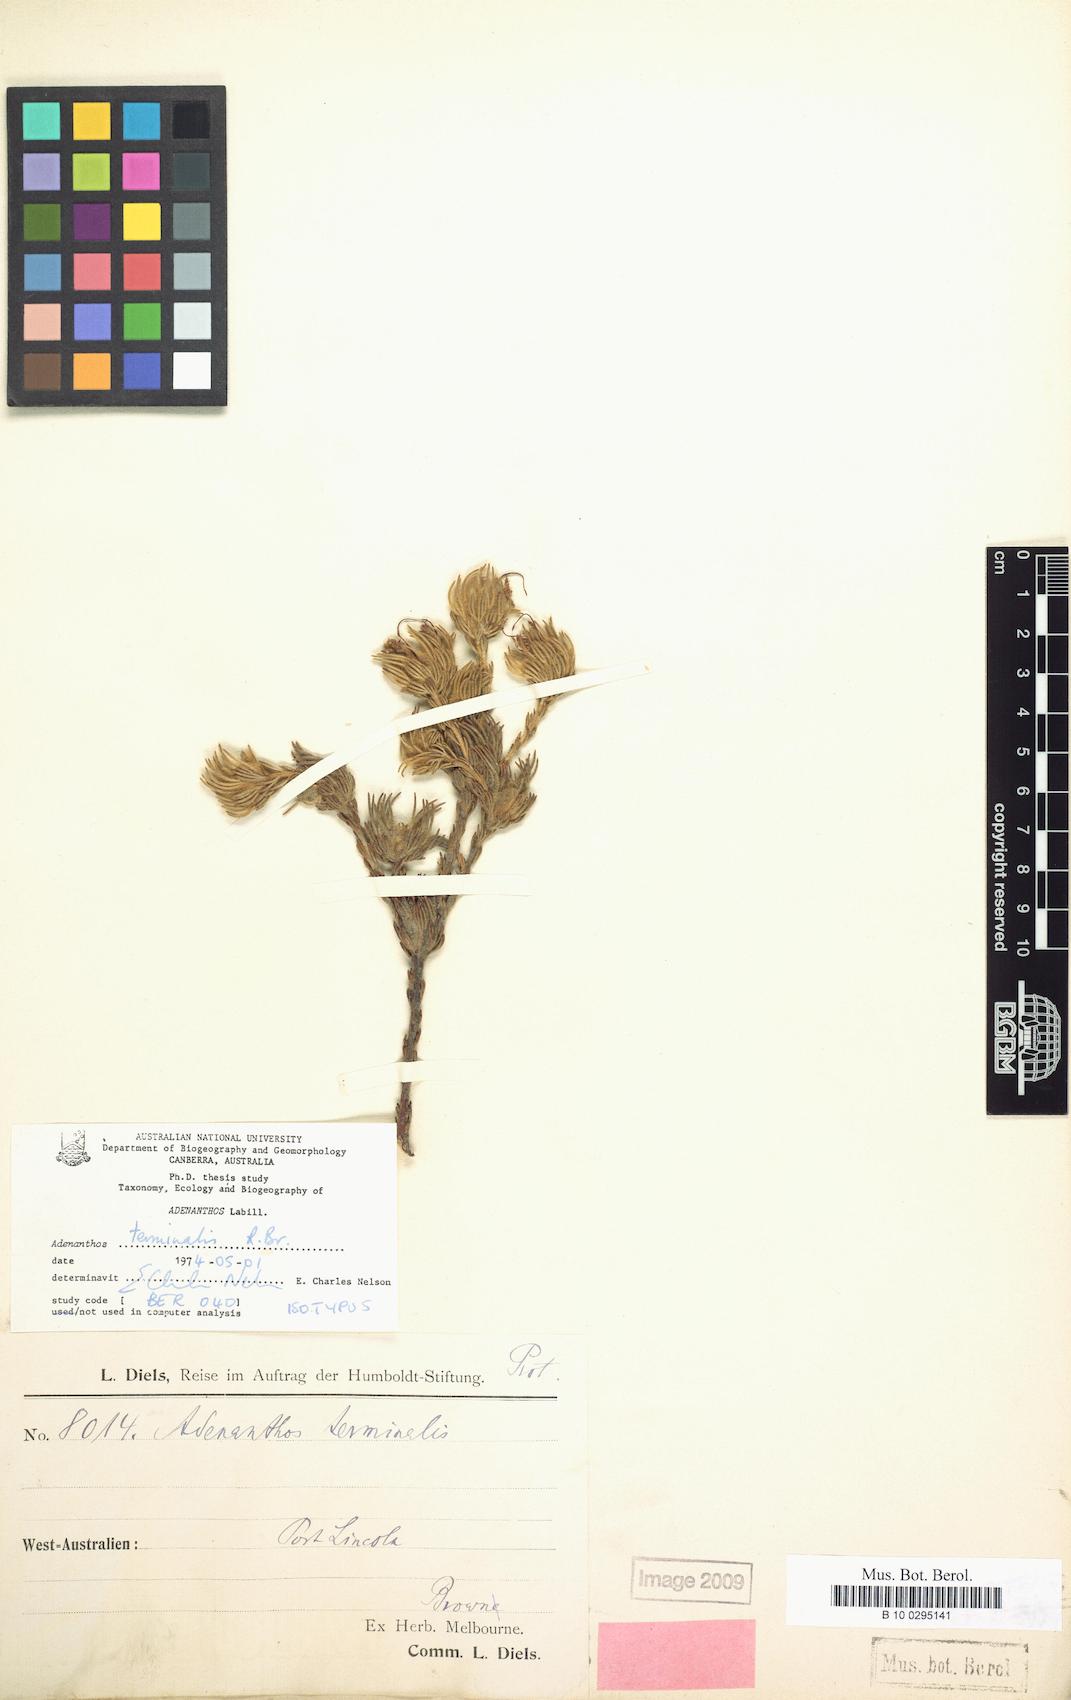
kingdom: Plantae
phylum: Tracheophyta
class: Magnoliopsida
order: Proteales
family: Proteaceae
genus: Adenanthos
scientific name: Adenanthos terminalis
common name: Yellow gland-flower
